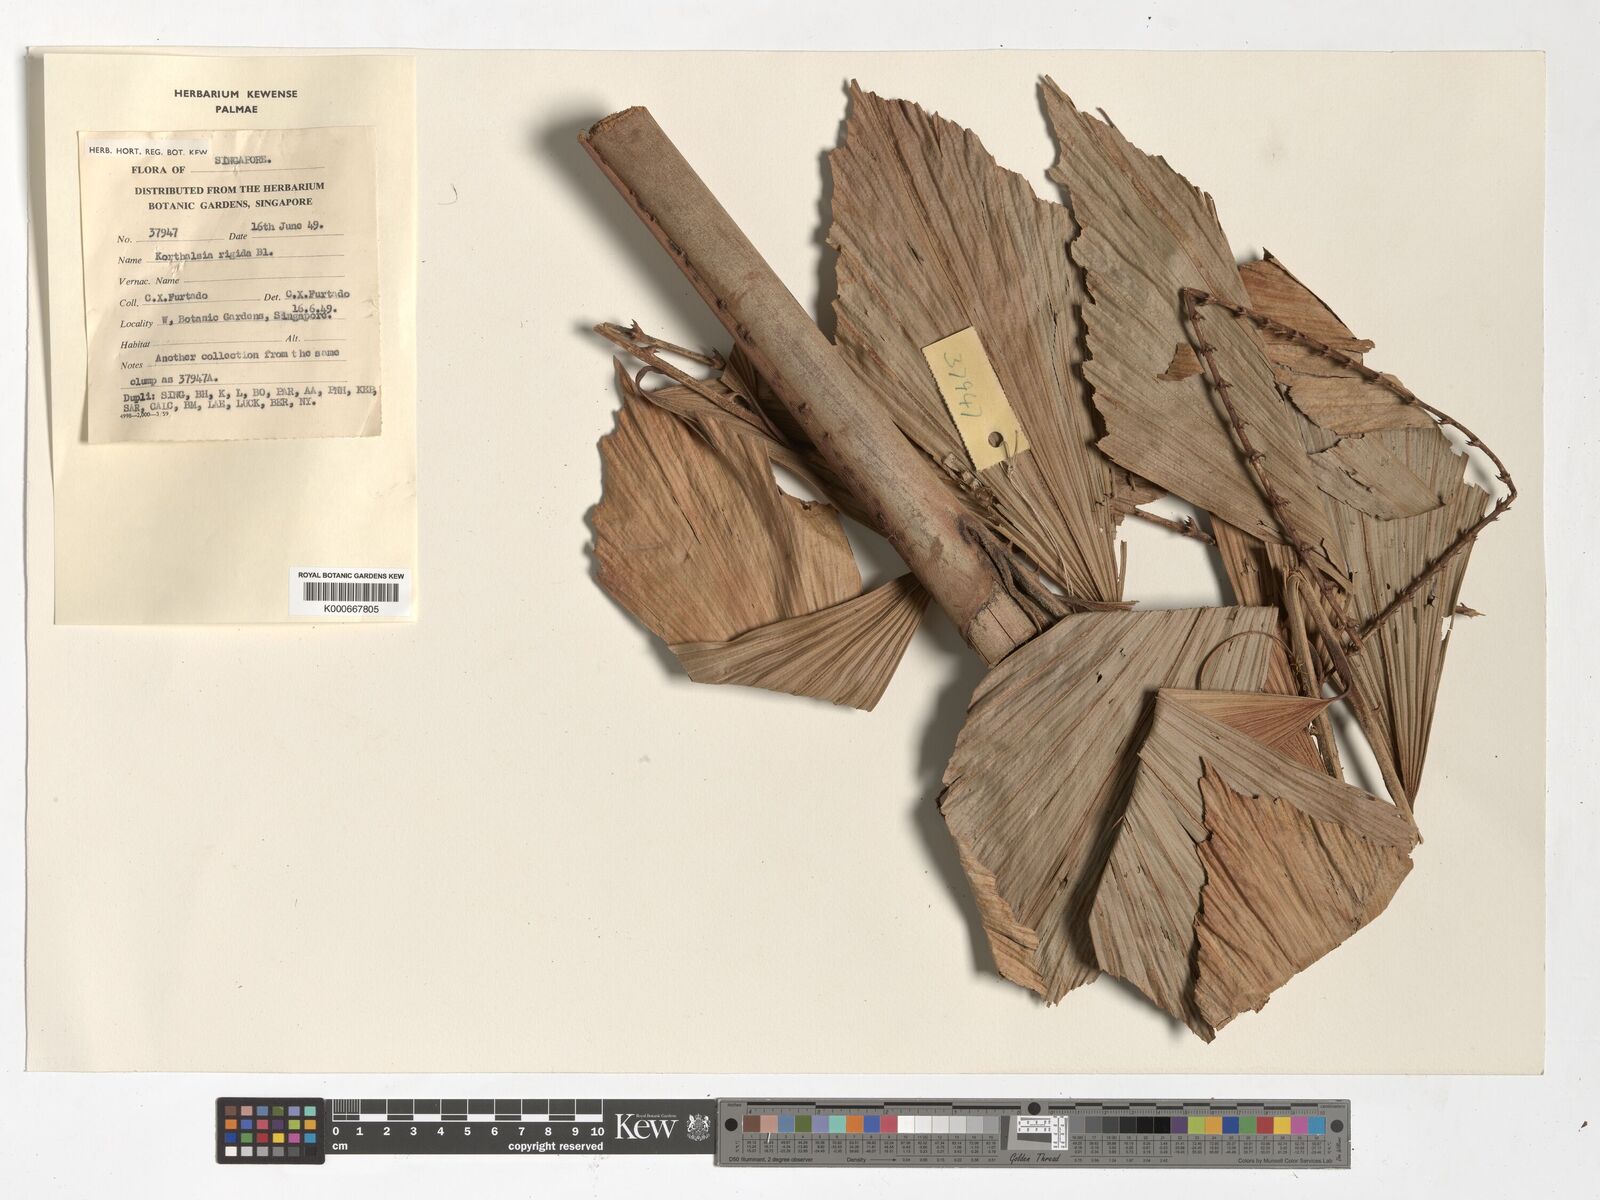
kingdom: Plantae
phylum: Tracheophyta
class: Liliopsida
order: Arecales
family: Arecaceae
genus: Korthalsia
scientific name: Korthalsia rigida
